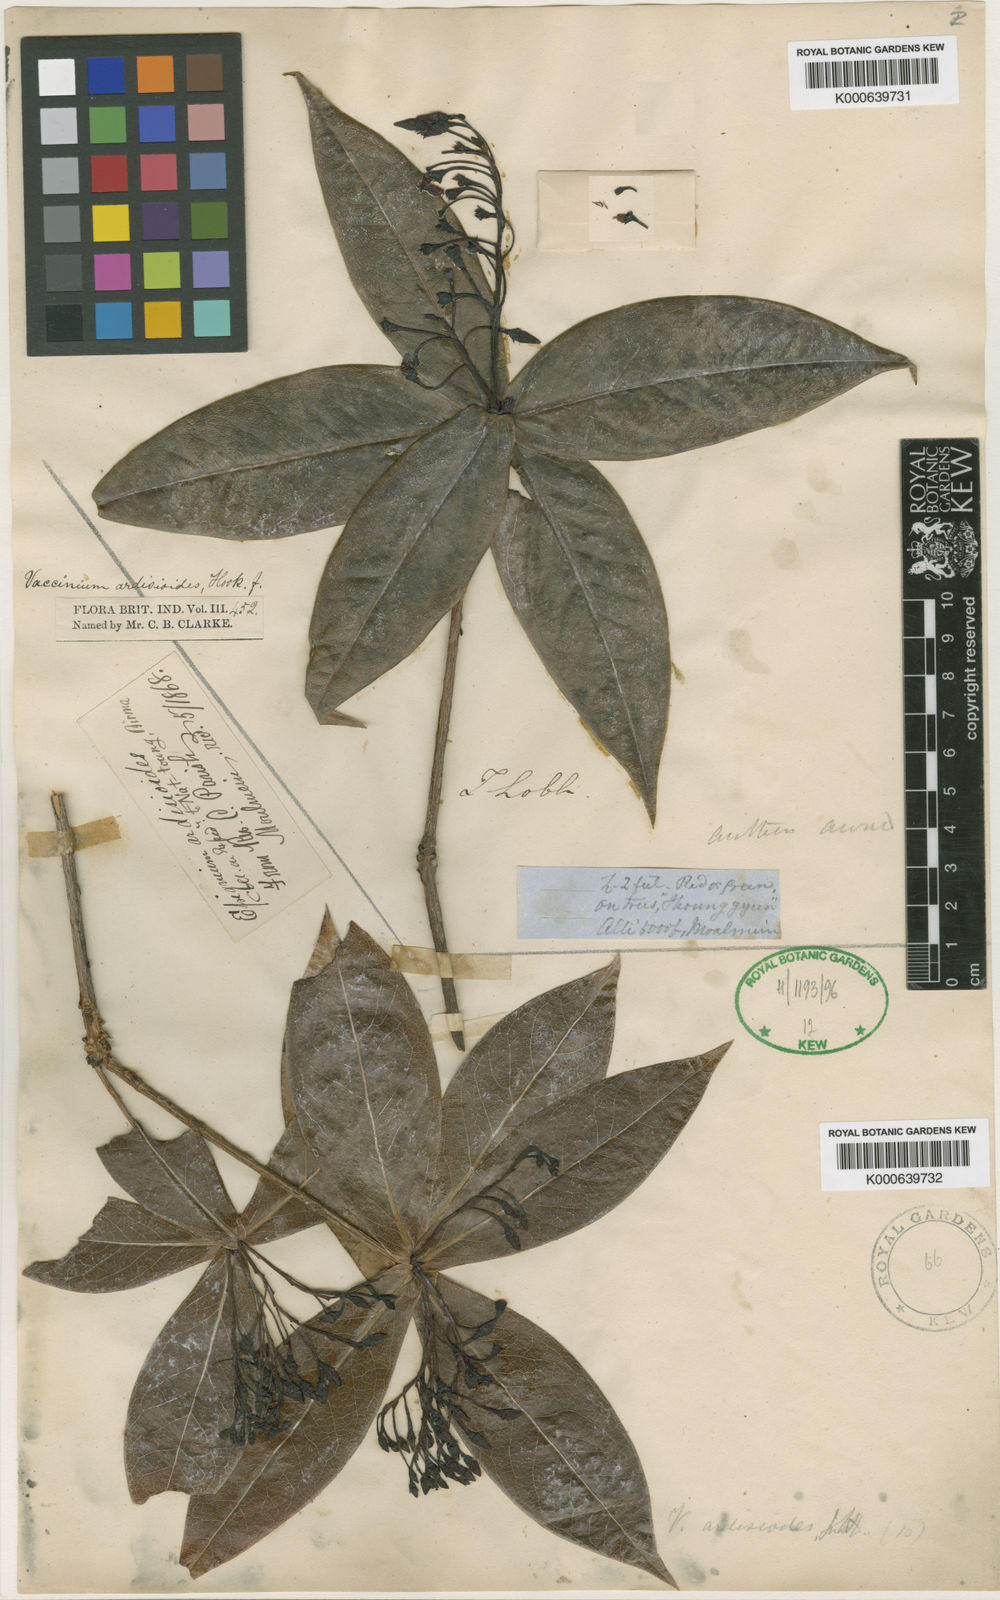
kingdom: Plantae
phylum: Tracheophyta
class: Magnoliopsida
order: Ericales
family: Ericaceae
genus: Vaccinium
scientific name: Vaccinium ardisioides
